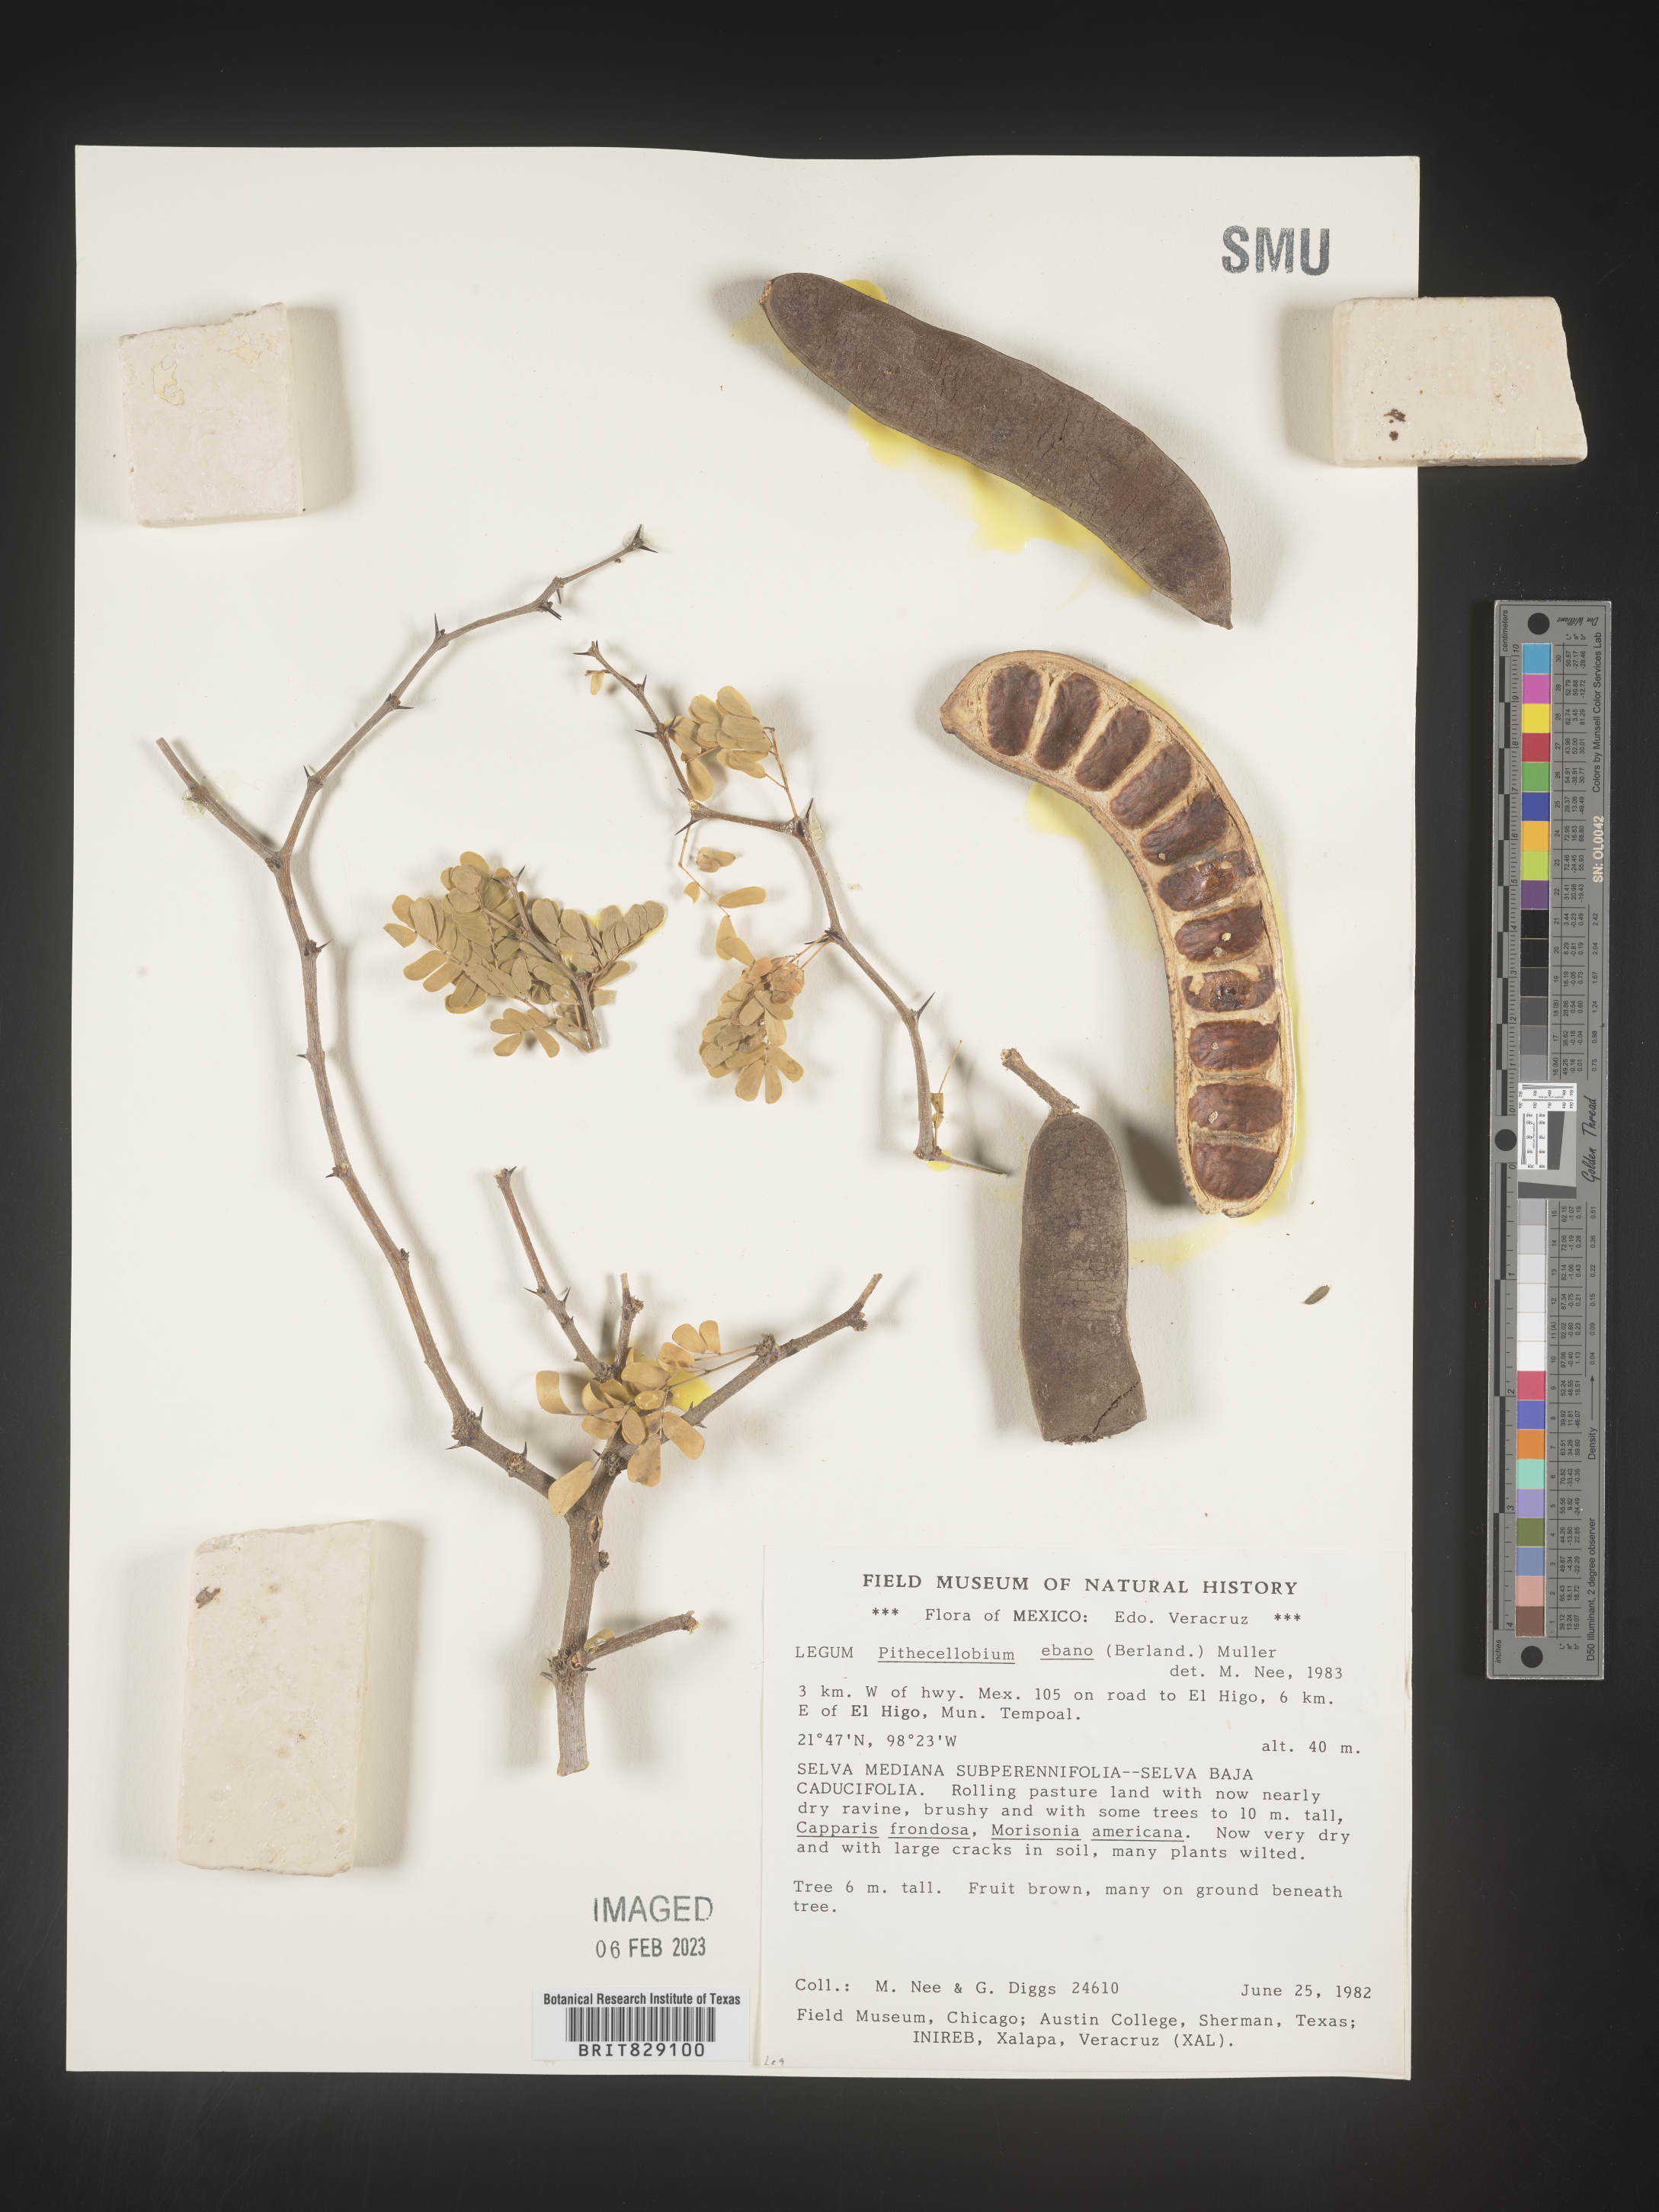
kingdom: Plantae
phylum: Tracheophyta
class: Magnoliopsida
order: Fabales
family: Fabaceae
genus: Pithecellobium
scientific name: Pithecellobium
